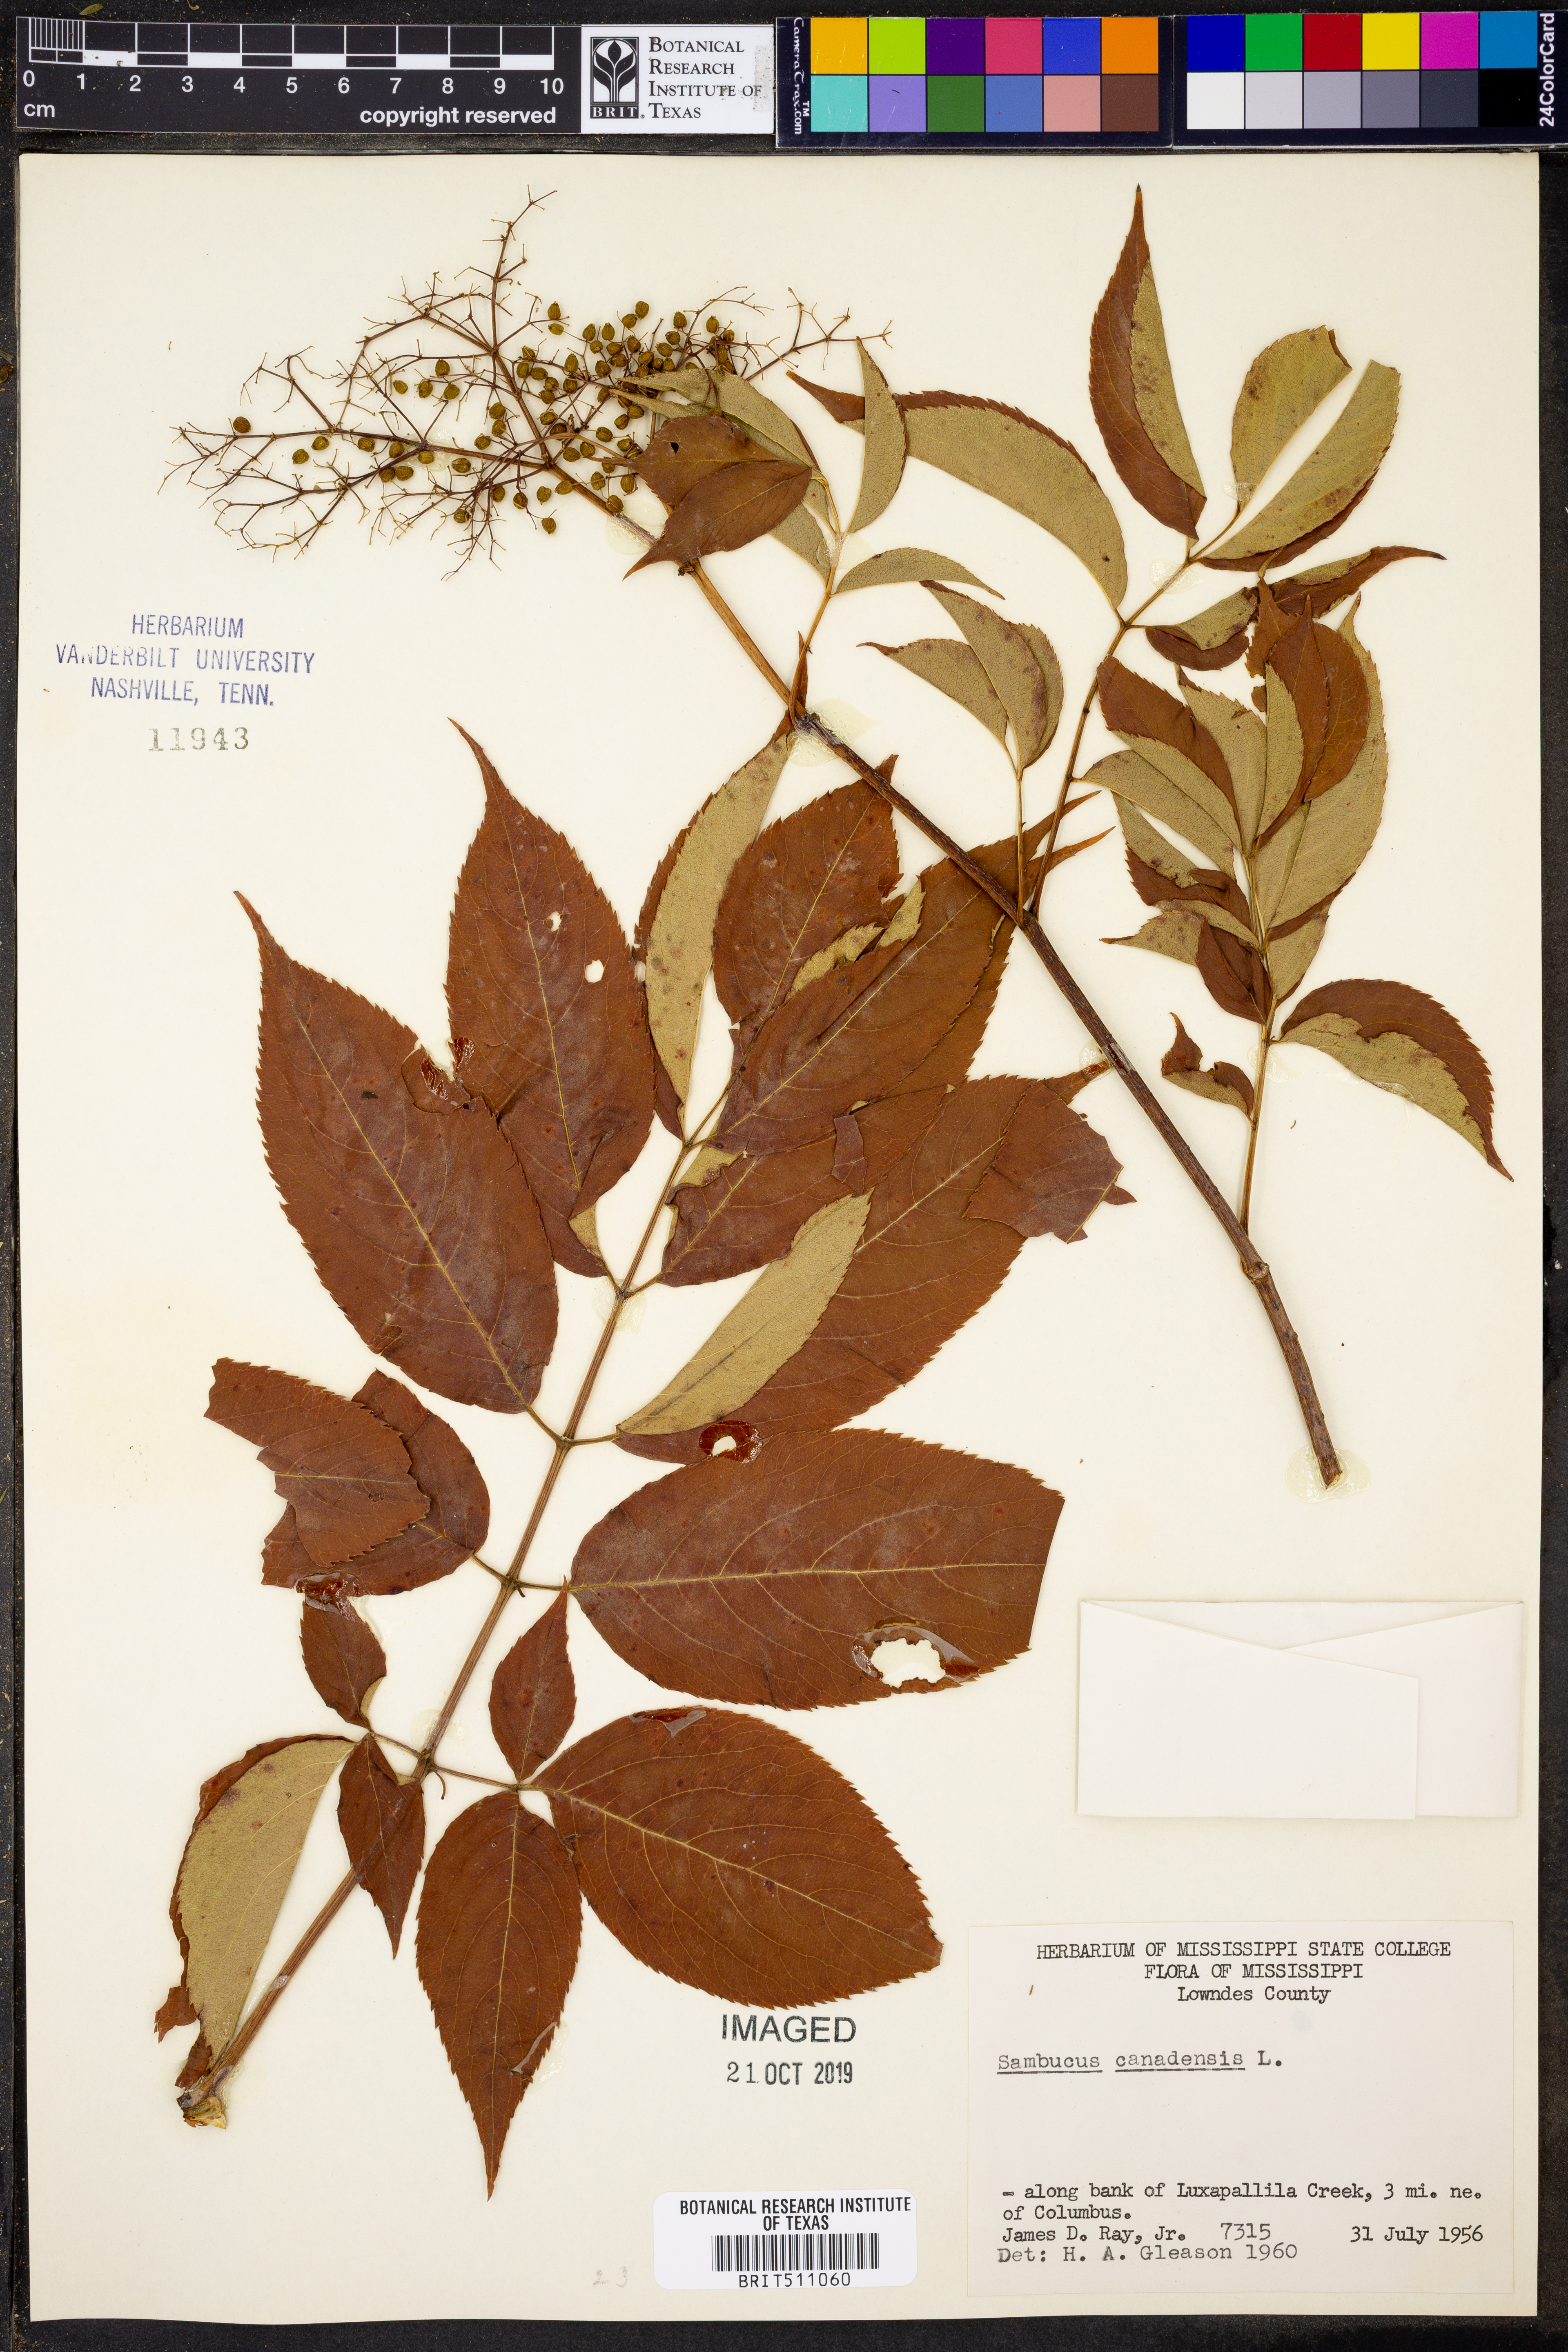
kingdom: Plantae
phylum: Tracheophyta
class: Magnoliopsida
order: Dipsacales
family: Viburnaceae
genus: Sambucus
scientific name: Sambucus canadensis
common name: American elder
